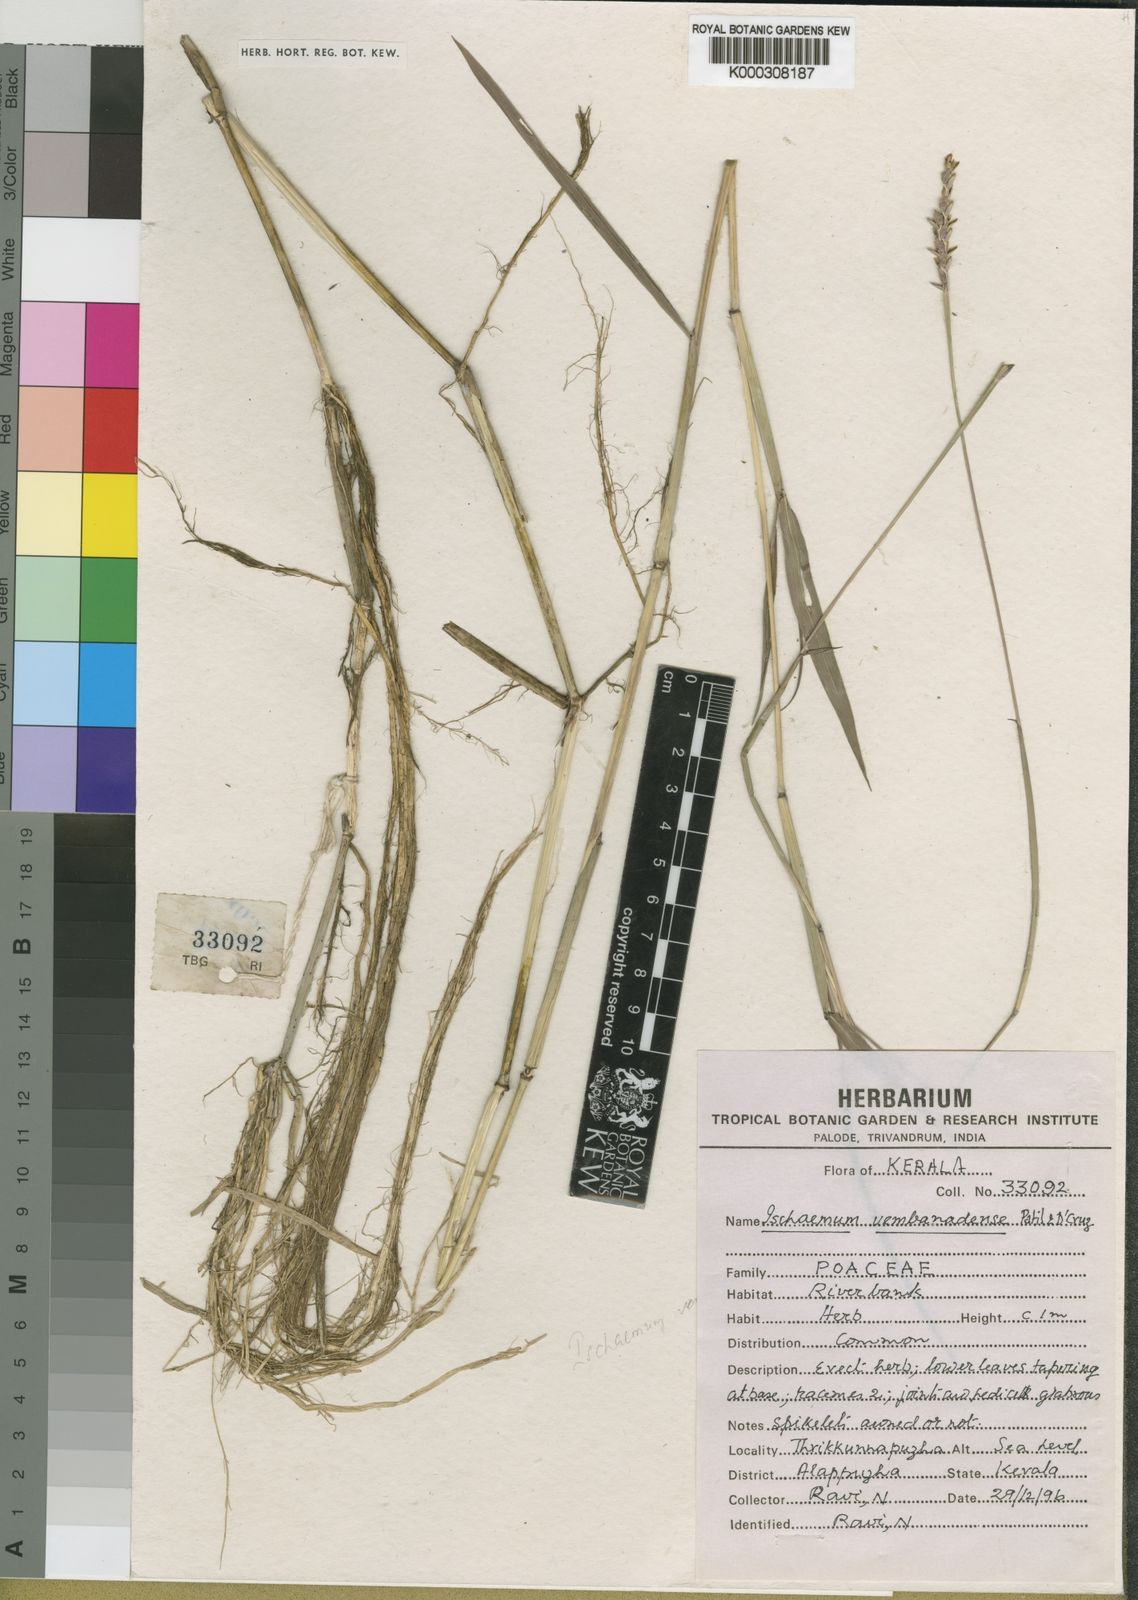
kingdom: Plantae
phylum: Tracheophyta
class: Liliopsida
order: Poales
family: Poaceae
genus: Ischaemum
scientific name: Ischaemum vembanadense
